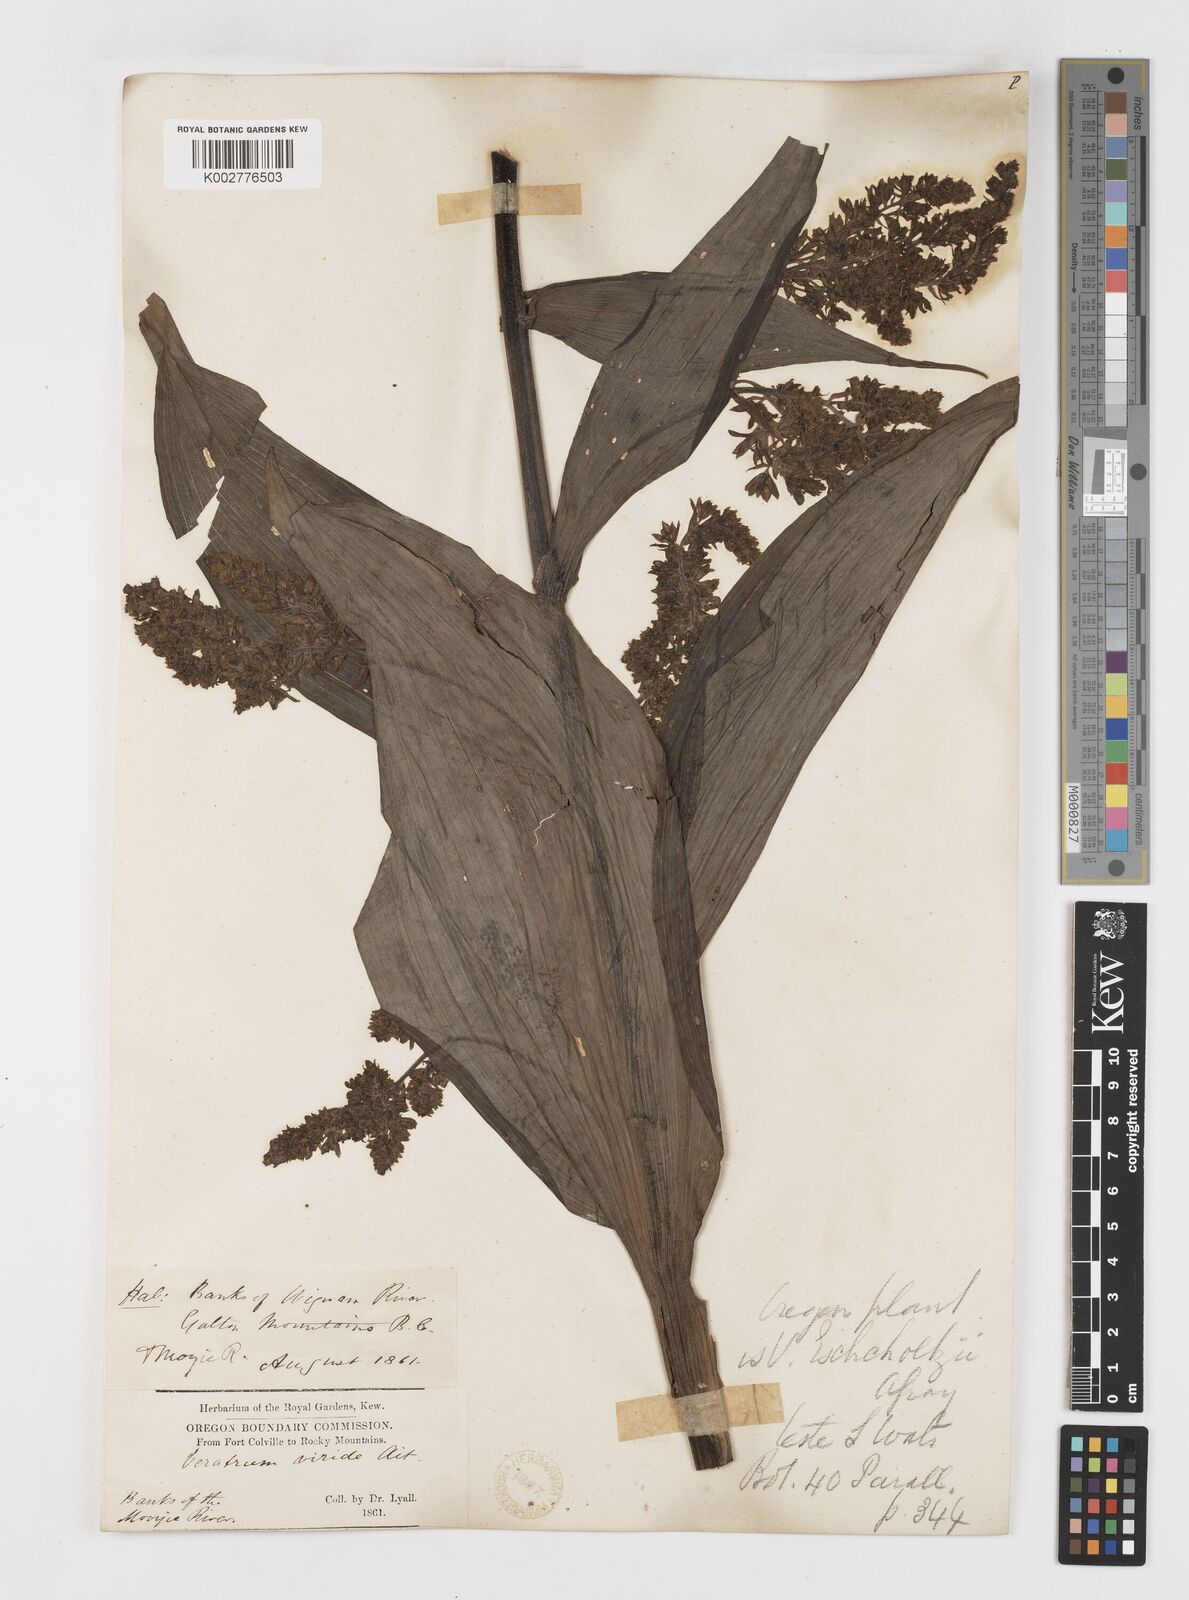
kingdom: Plantae
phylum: Tracheophyta
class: Liliopsida
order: Liliales
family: Melanthiaceae
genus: Veratrum
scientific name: Veratrum viride
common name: American false hellebore
